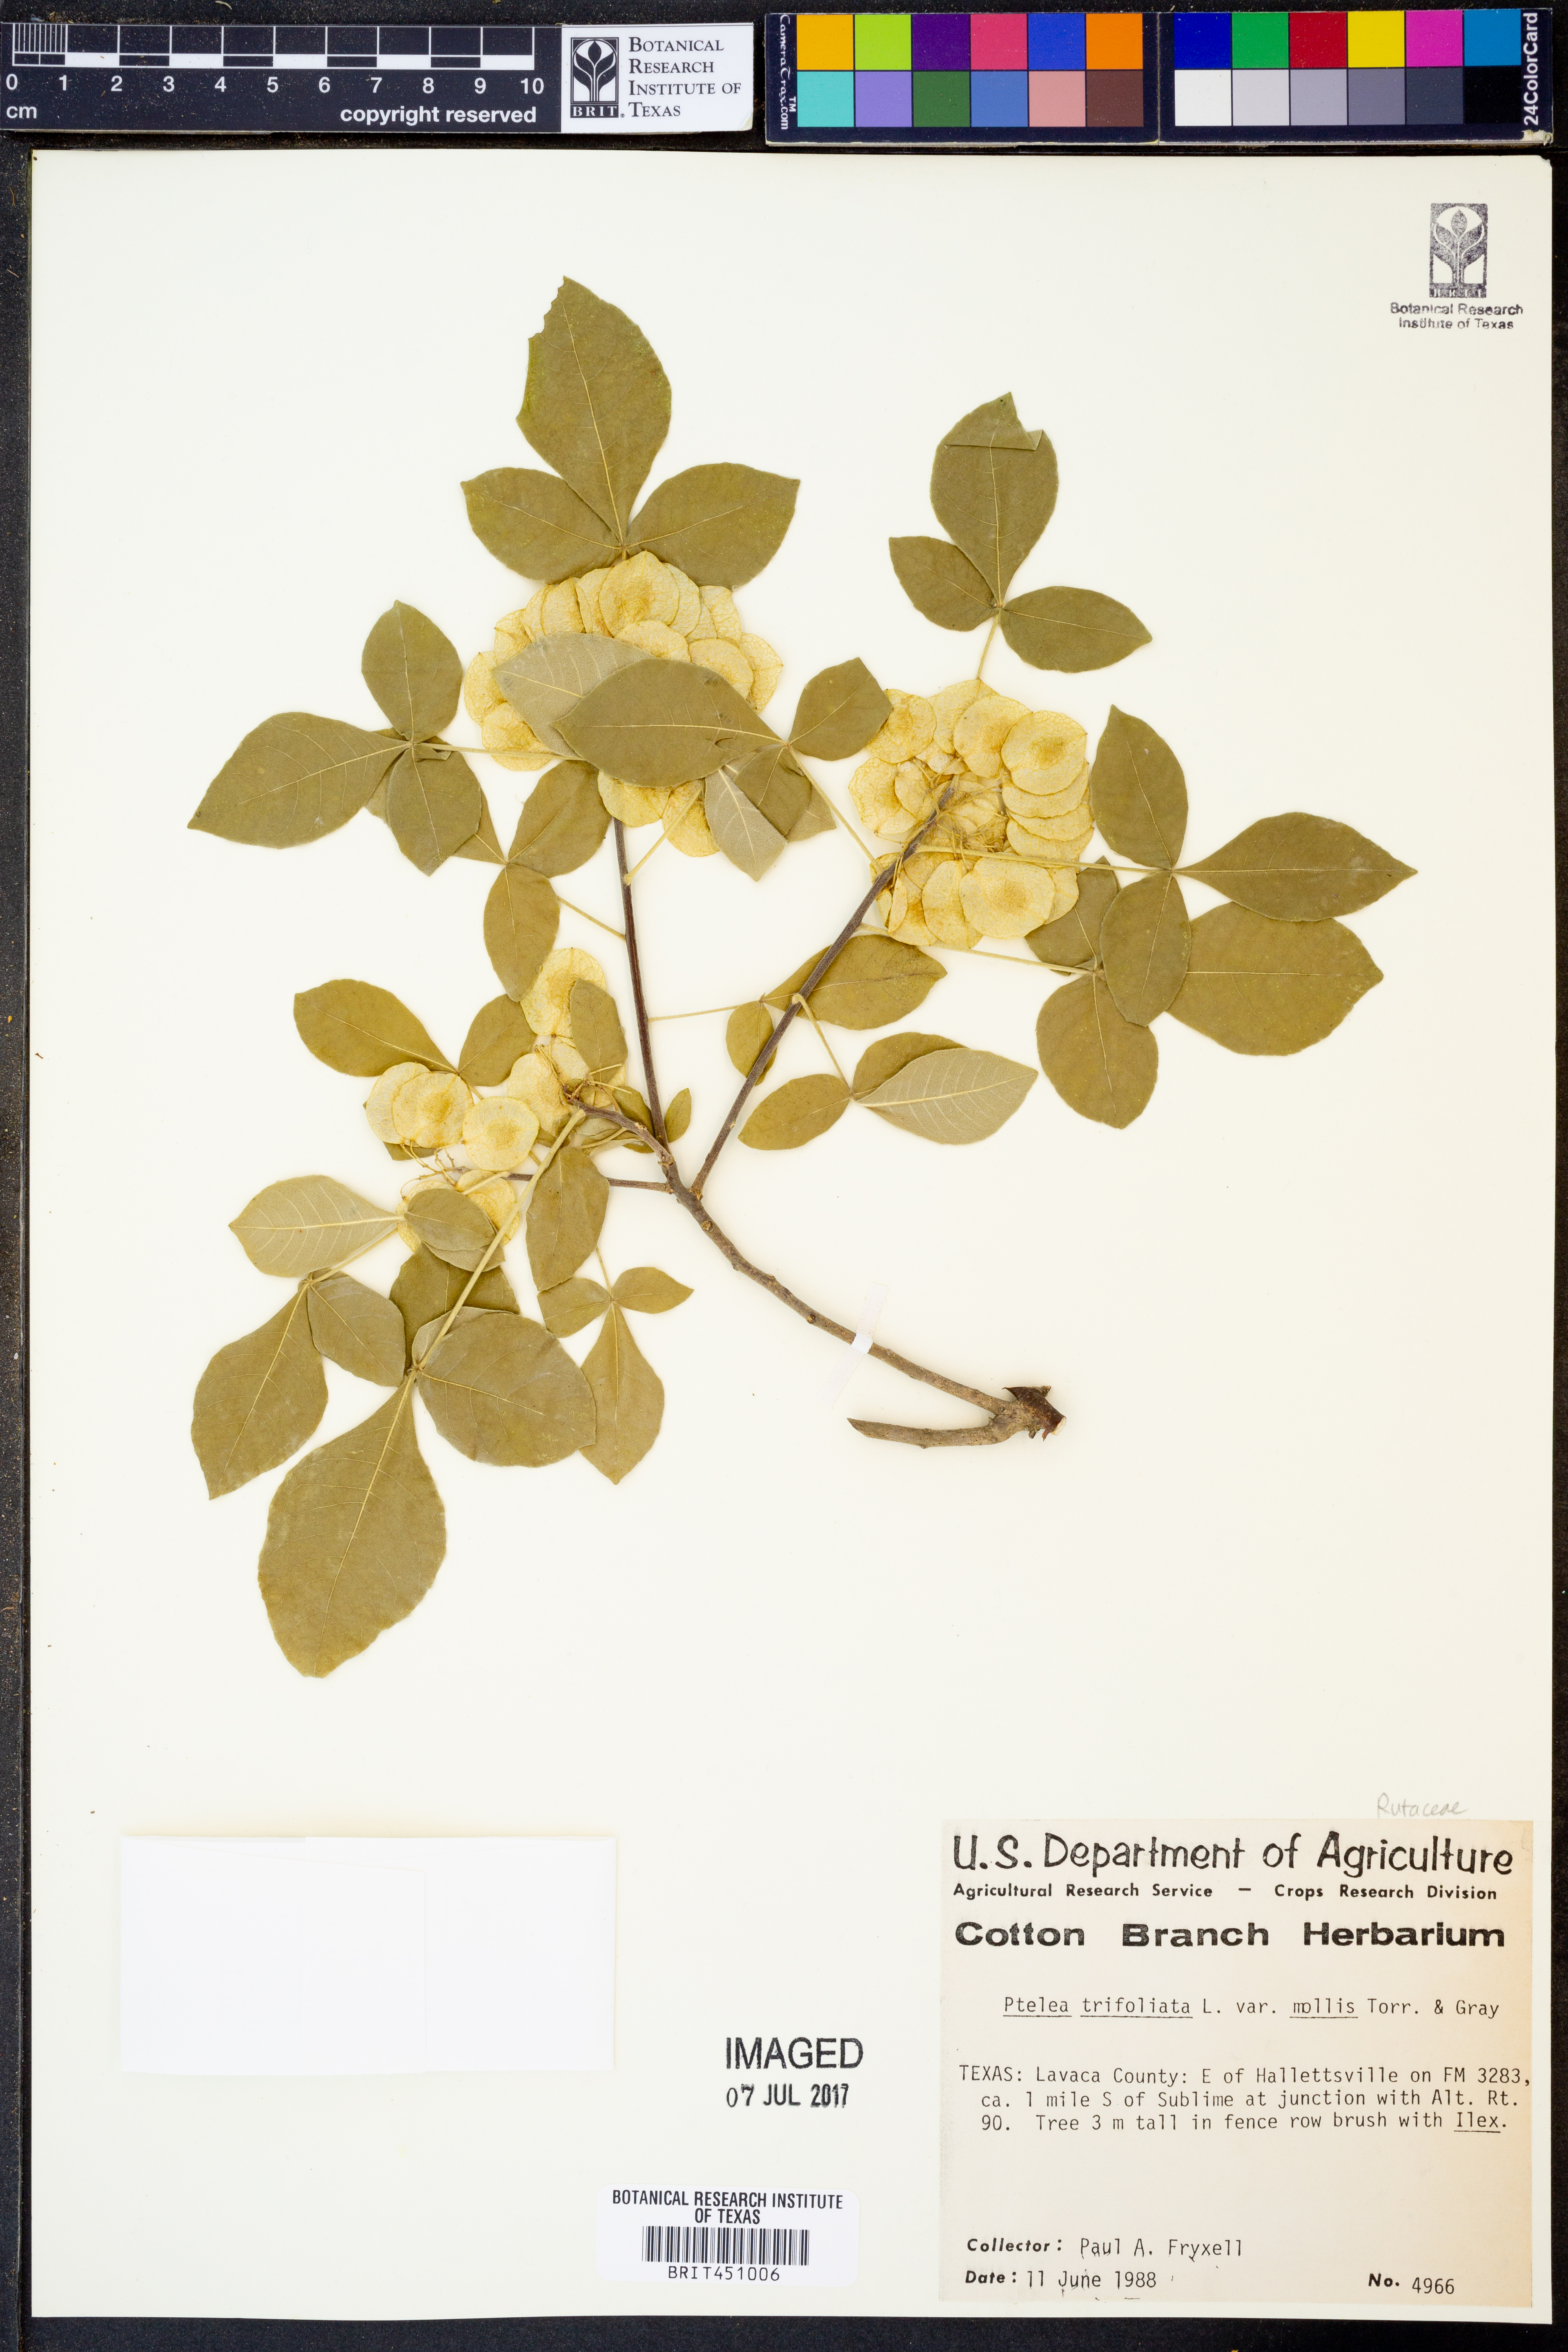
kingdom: Plantae
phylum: Tracheophyta
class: Magnoliopsida
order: Sapindales
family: Rutaceae
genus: Ptelea
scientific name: Ptelea trifoliata
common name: Common hop-tree
